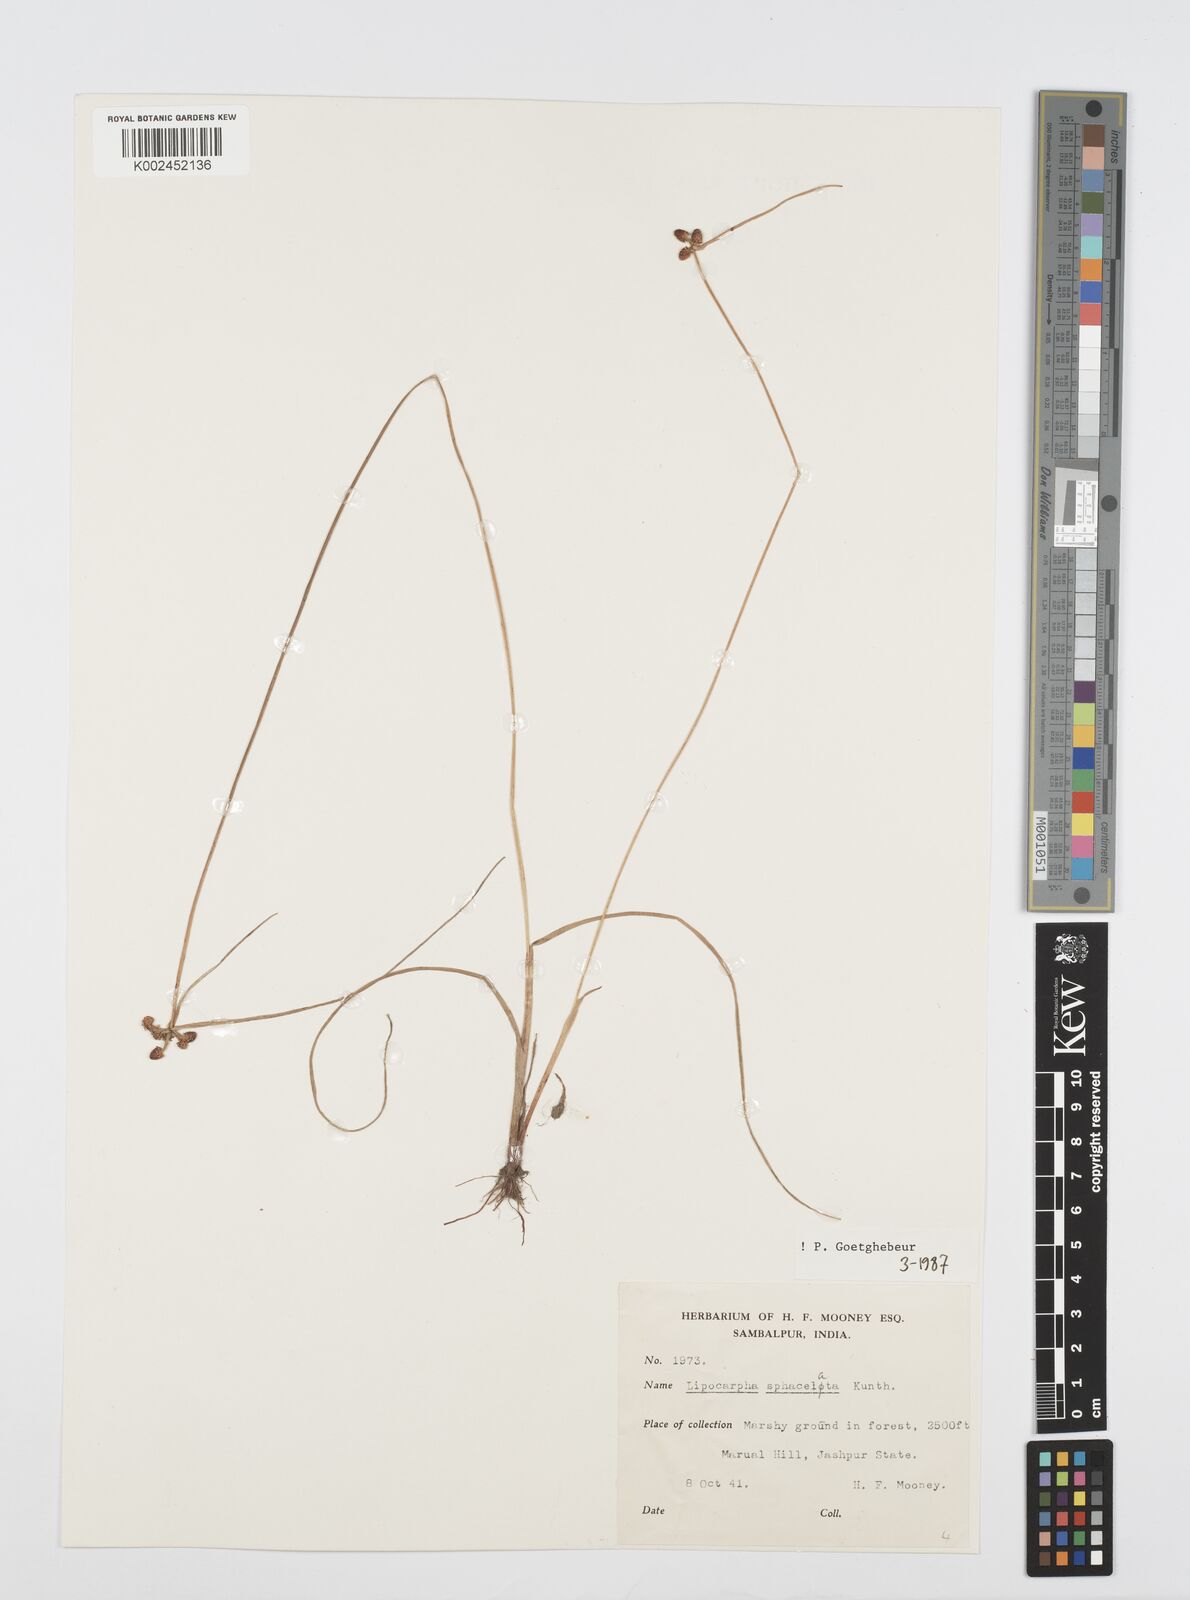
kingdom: Plantae
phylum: Tracheophyta
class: Liliopsida
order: Poales
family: Cyperaceae
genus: Cyperus
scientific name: Cyperus sphacelatus
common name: Roadside flatsedge
